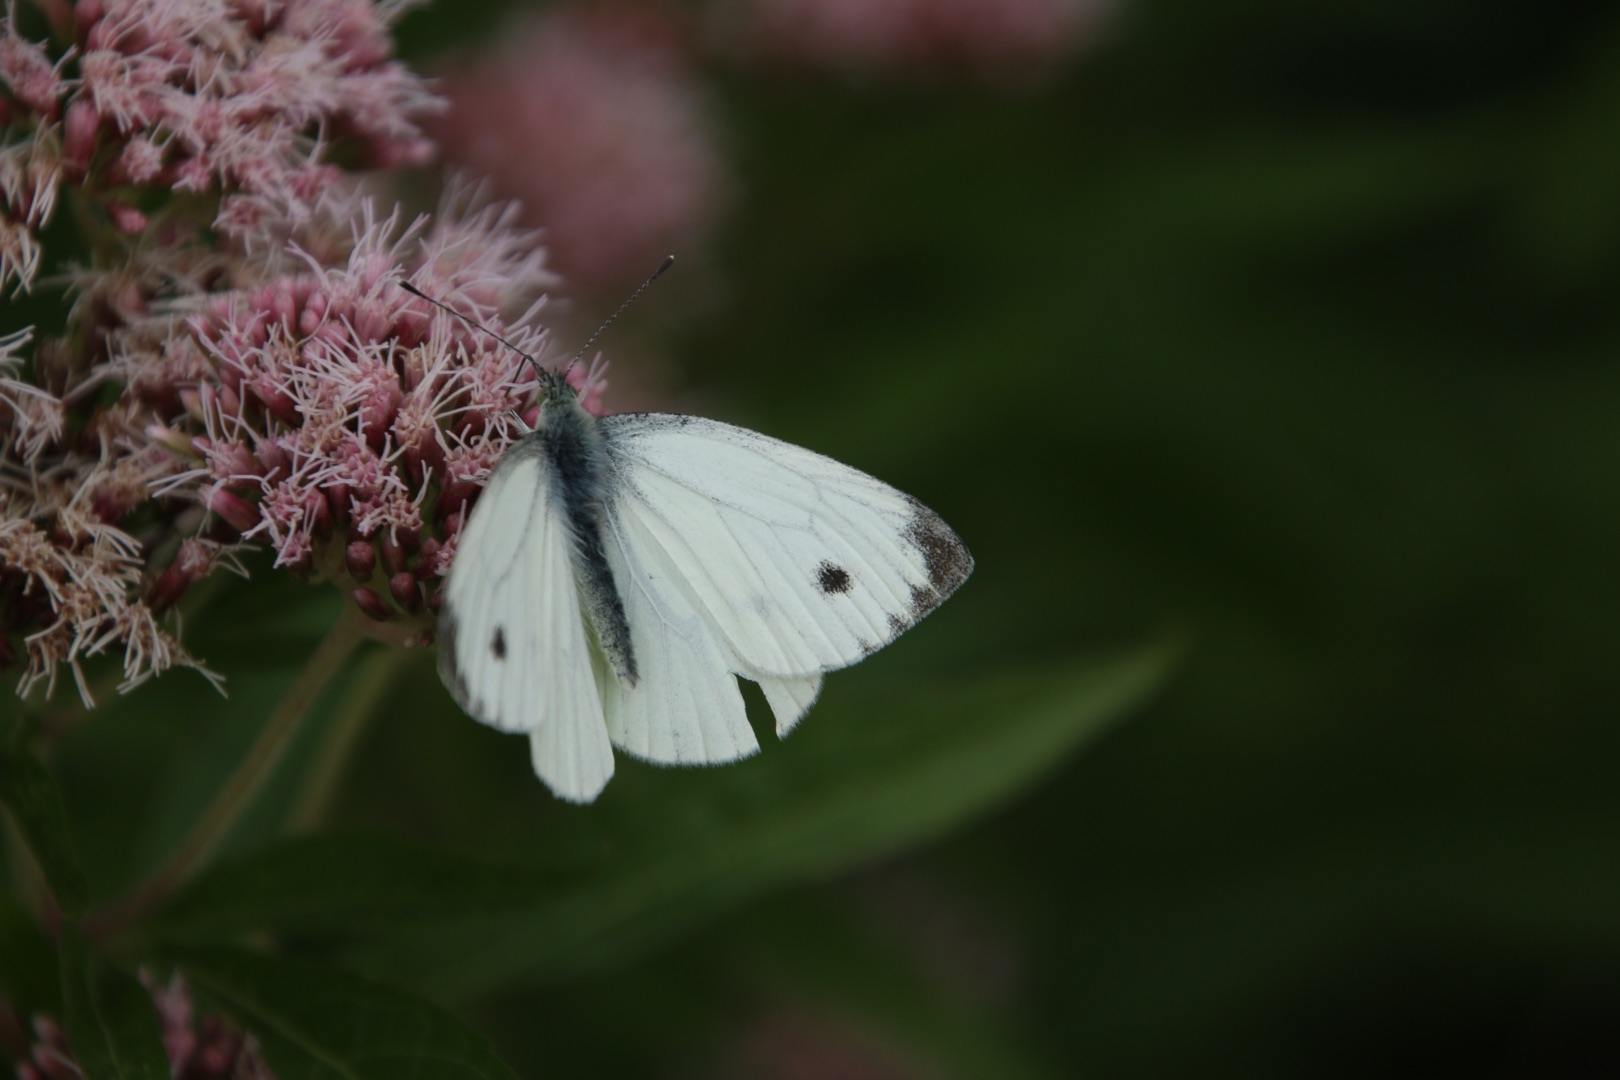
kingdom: Animalia
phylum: Arthropoda
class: Insecta
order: Lepidoptera
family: Pieridae
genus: Pieris
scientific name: Pieris napi
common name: Grønåret kålsommerfugl
